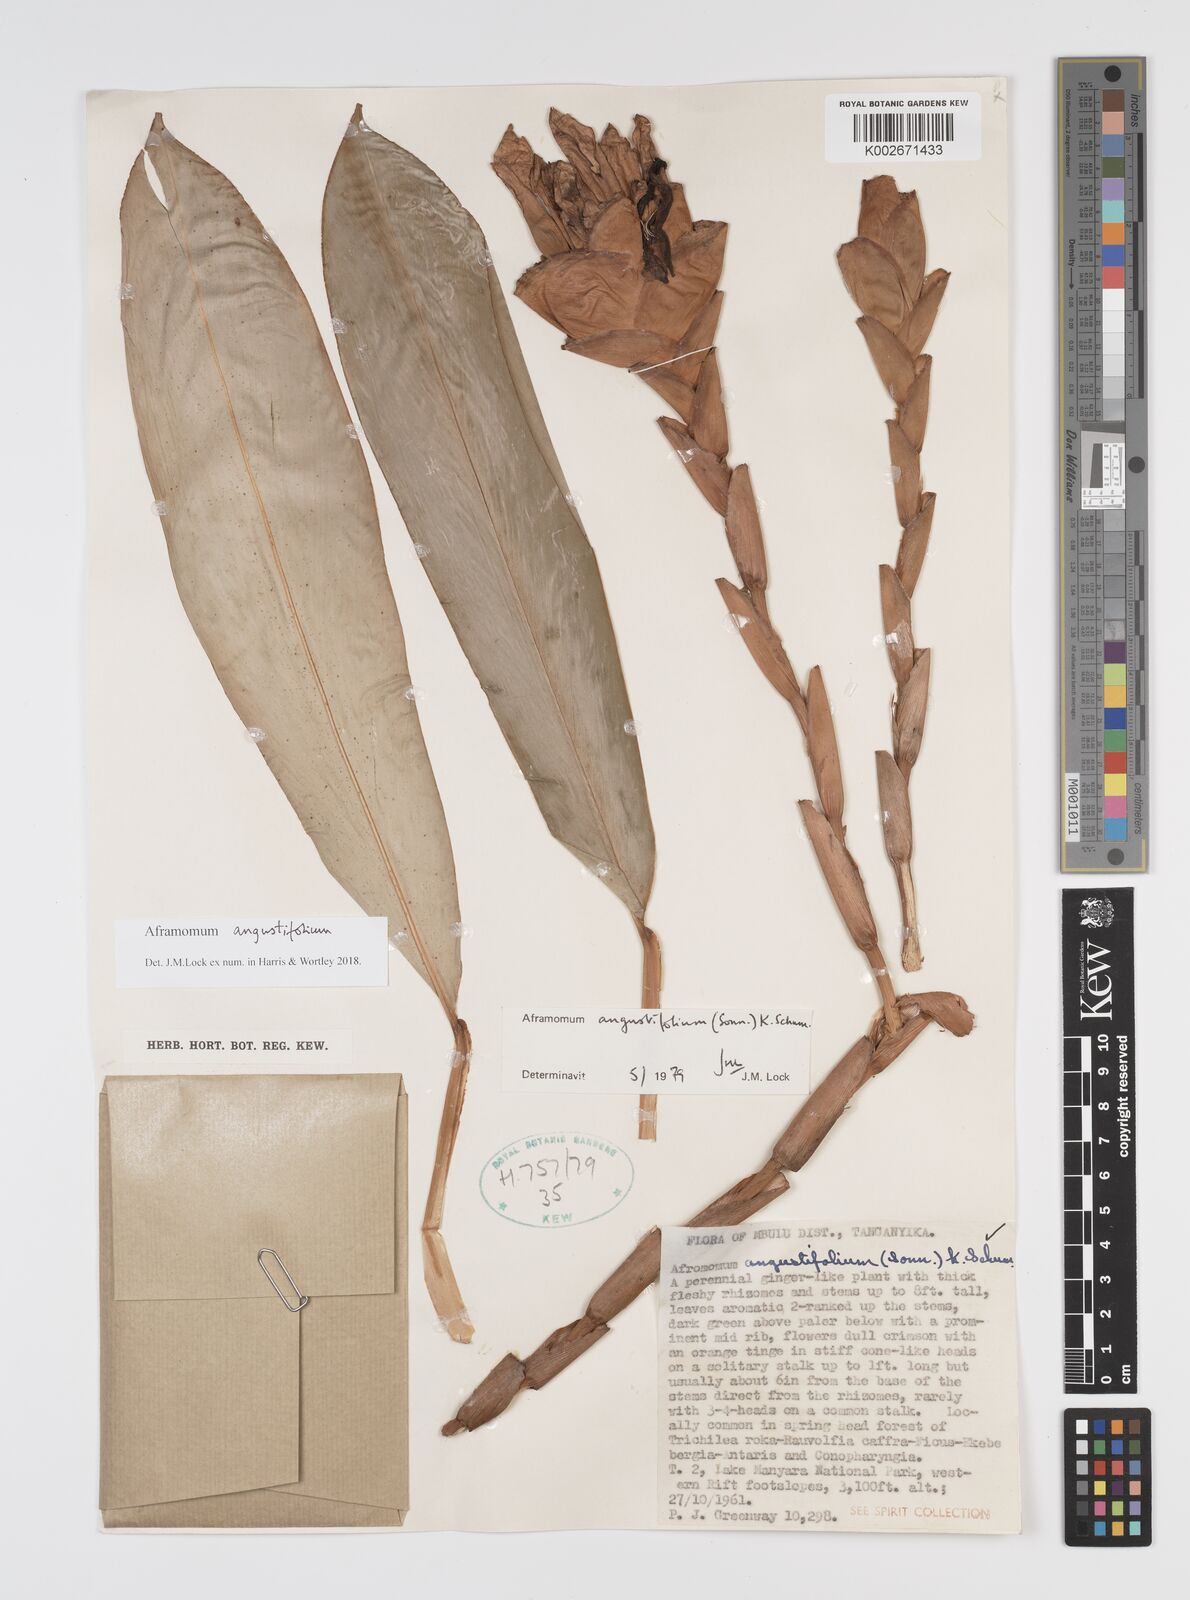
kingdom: Plantae
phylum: Tracheophyta
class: Liliopsida
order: Zingiberales
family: Zingiberaceae
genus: Aframomum
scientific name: Aframomum angustifolium
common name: Guinea grains
